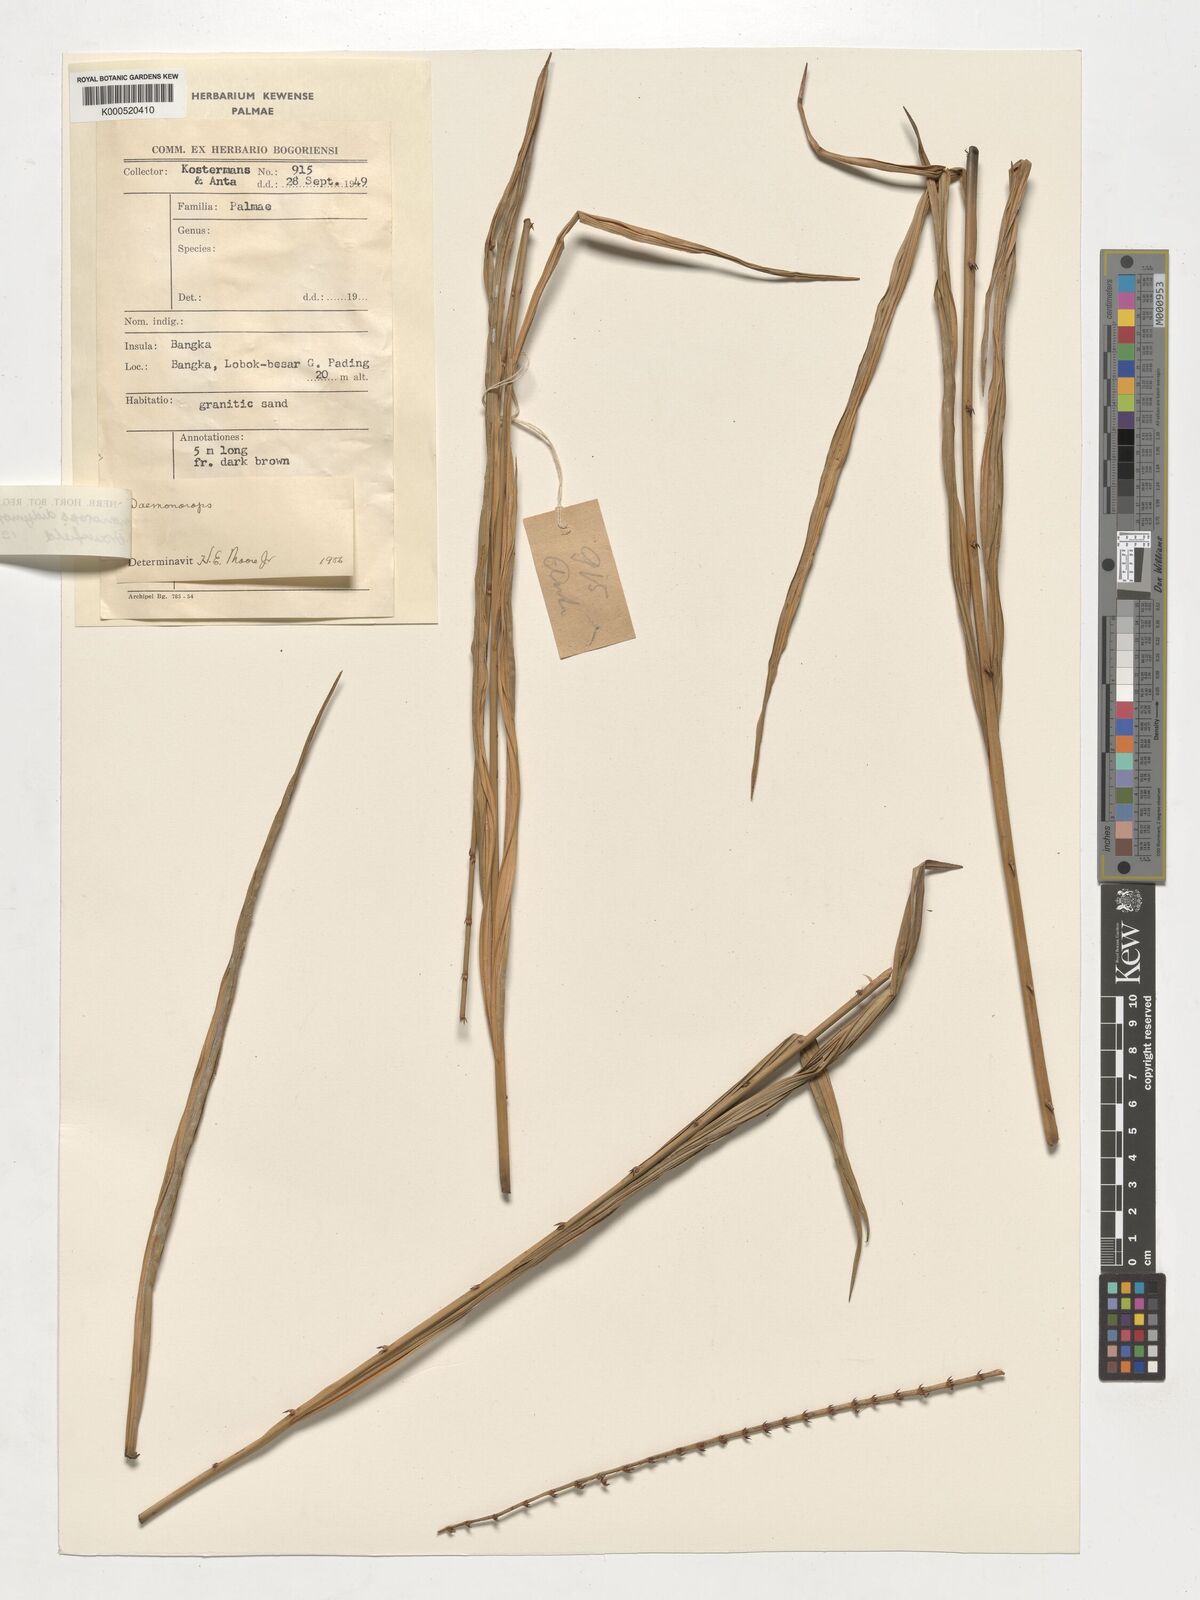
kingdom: Plantae
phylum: Tracheophyta
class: Liliopsida
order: Arecales
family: Arecaceae
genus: Calamus
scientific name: Calamus gracilipes
